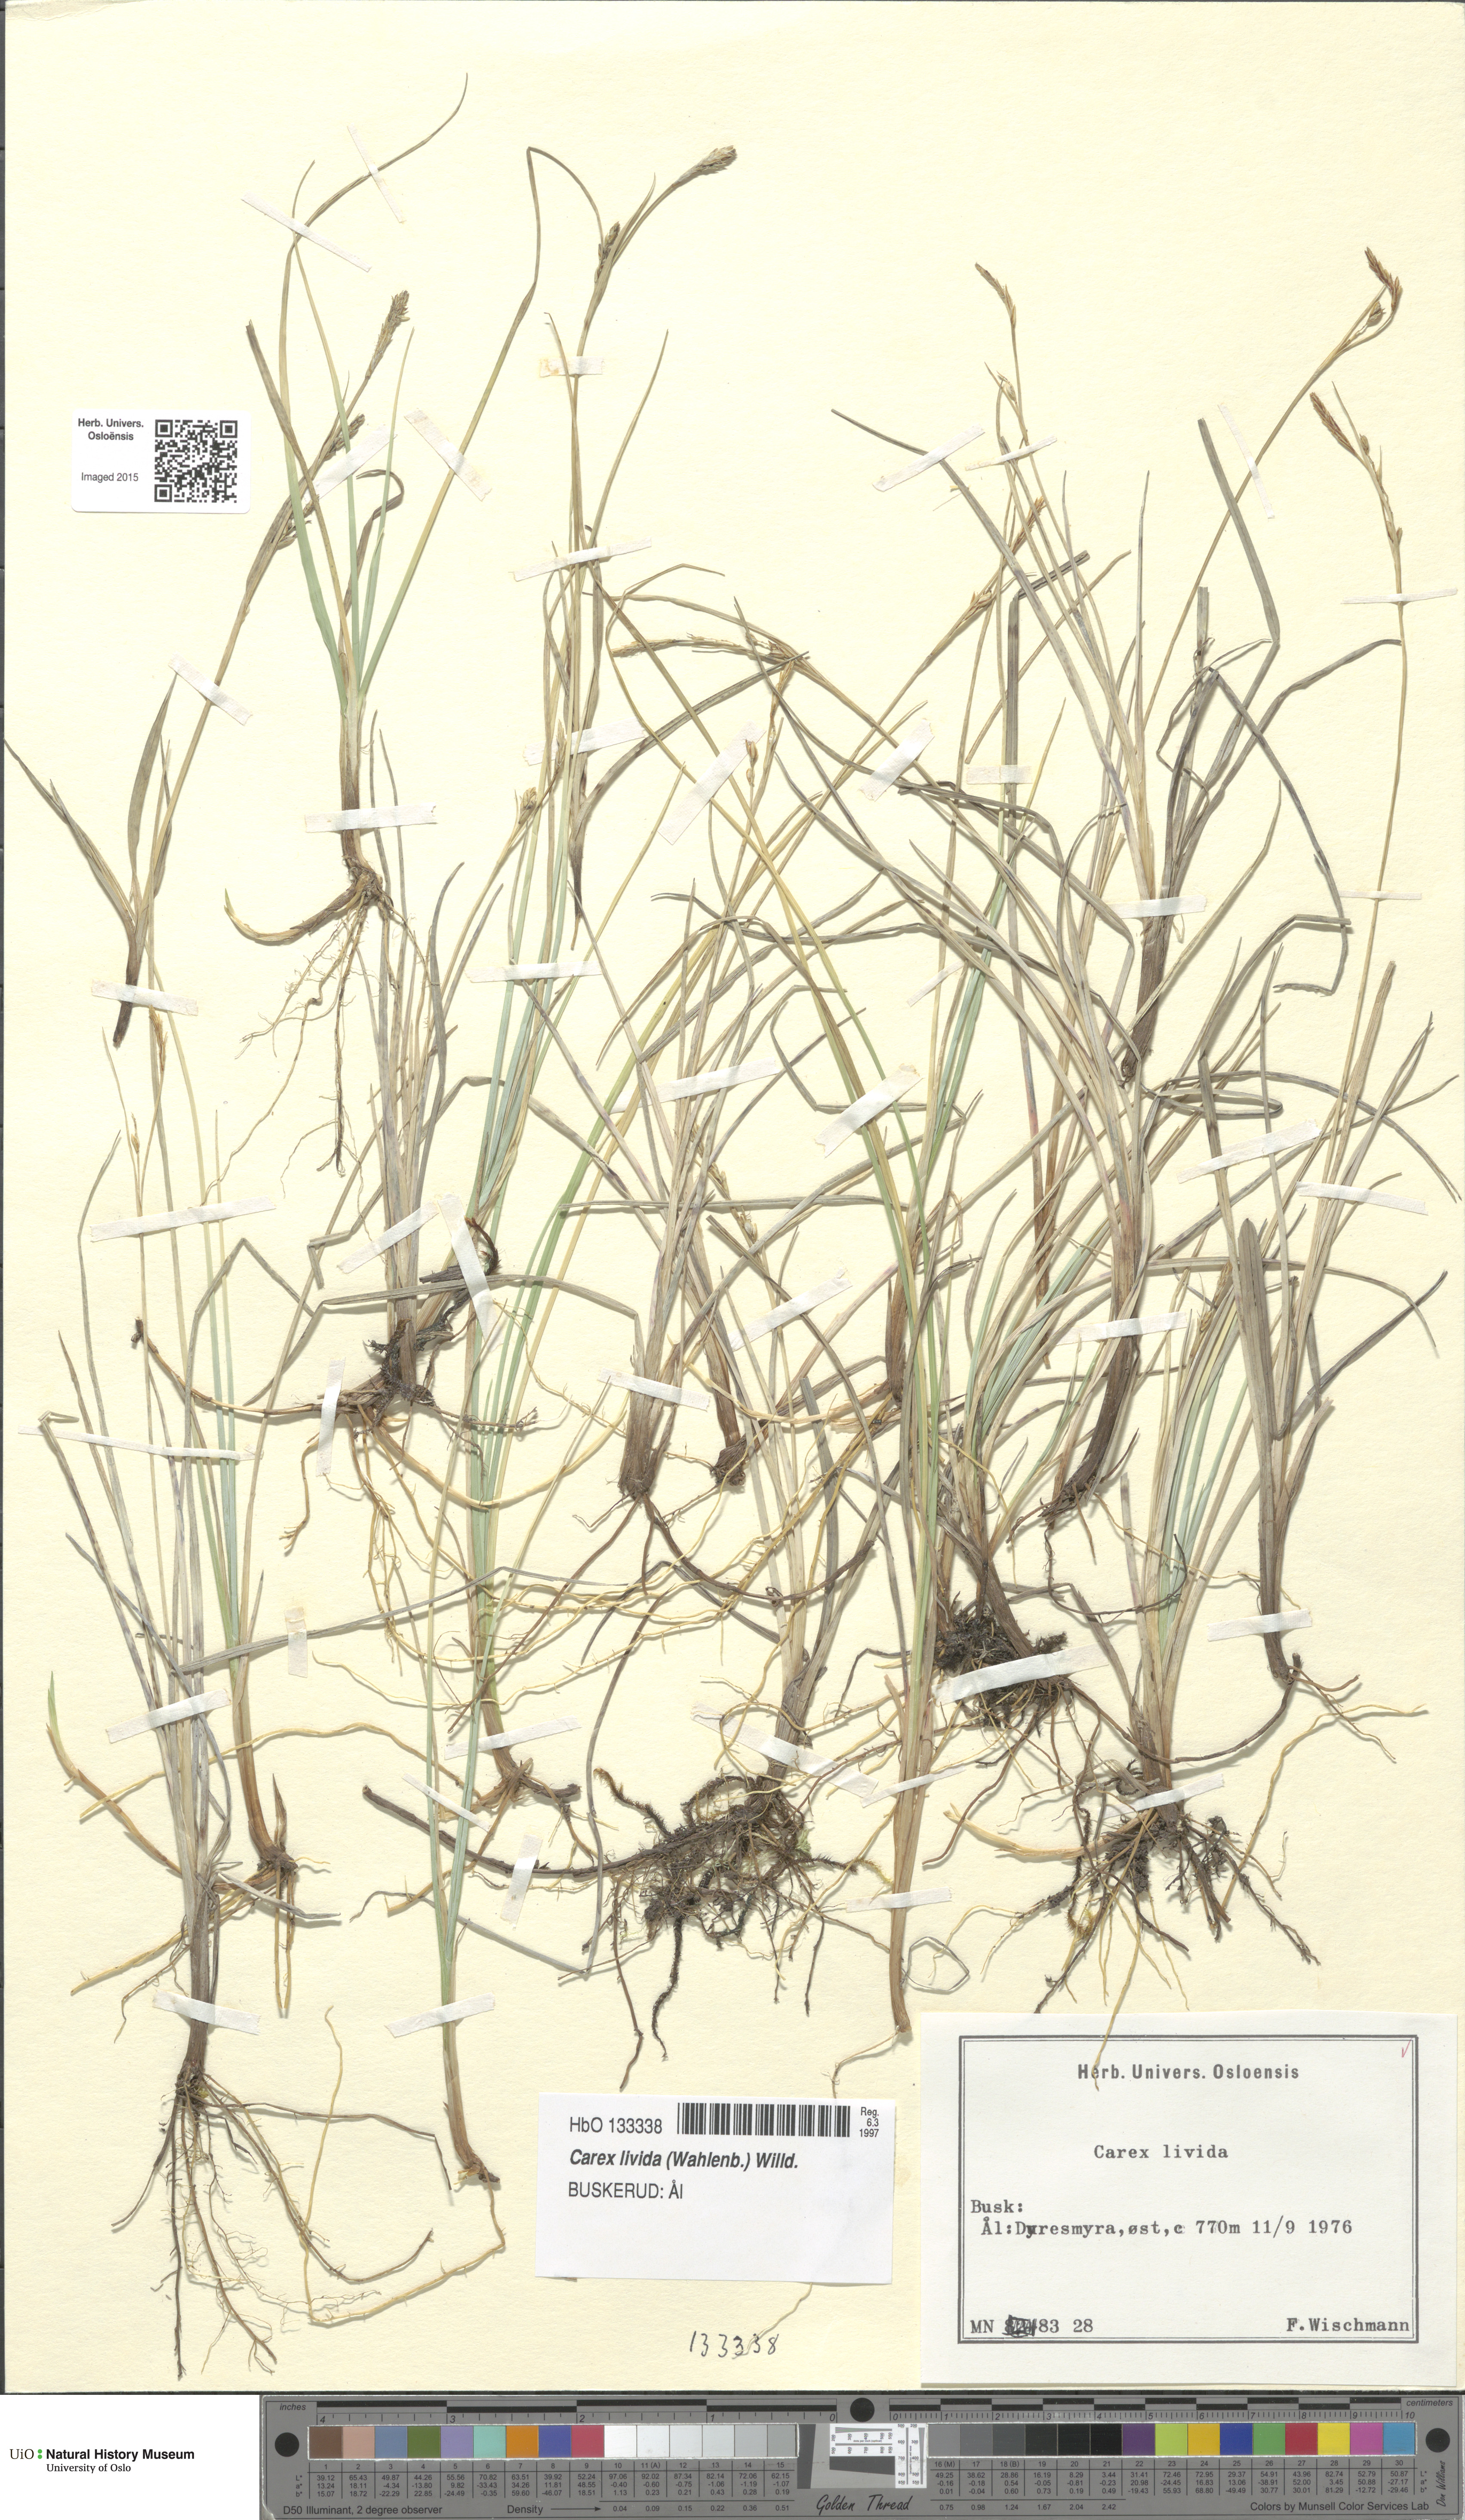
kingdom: Plantae
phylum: Tracheophyta
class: Liliopsida
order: Poales
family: Cyperaceae
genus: Carex
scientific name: Carex livida
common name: Livid sedge
